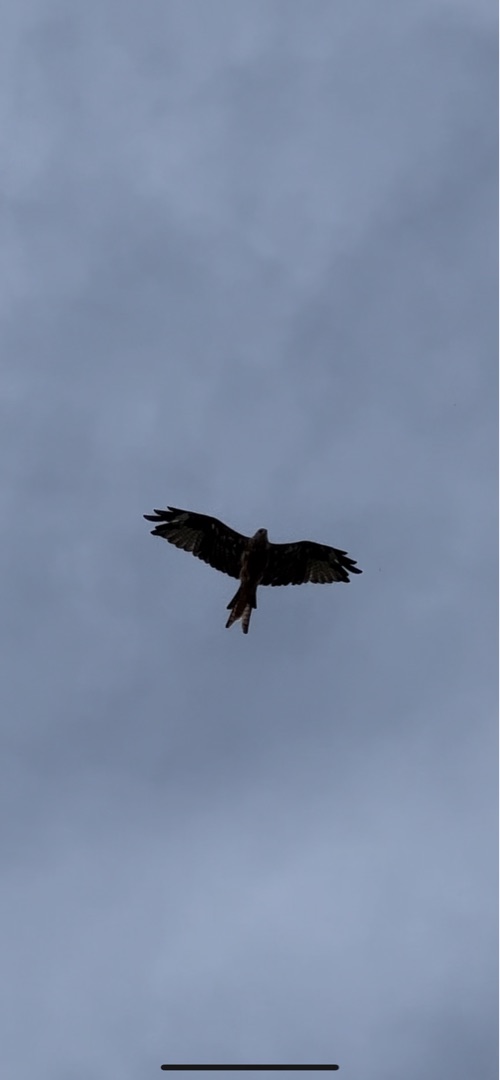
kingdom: Animalia
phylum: Chordata
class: Aves
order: Accipitriformes
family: Accipitridae
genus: Milvus
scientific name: Milvus milvus
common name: Rød glente
